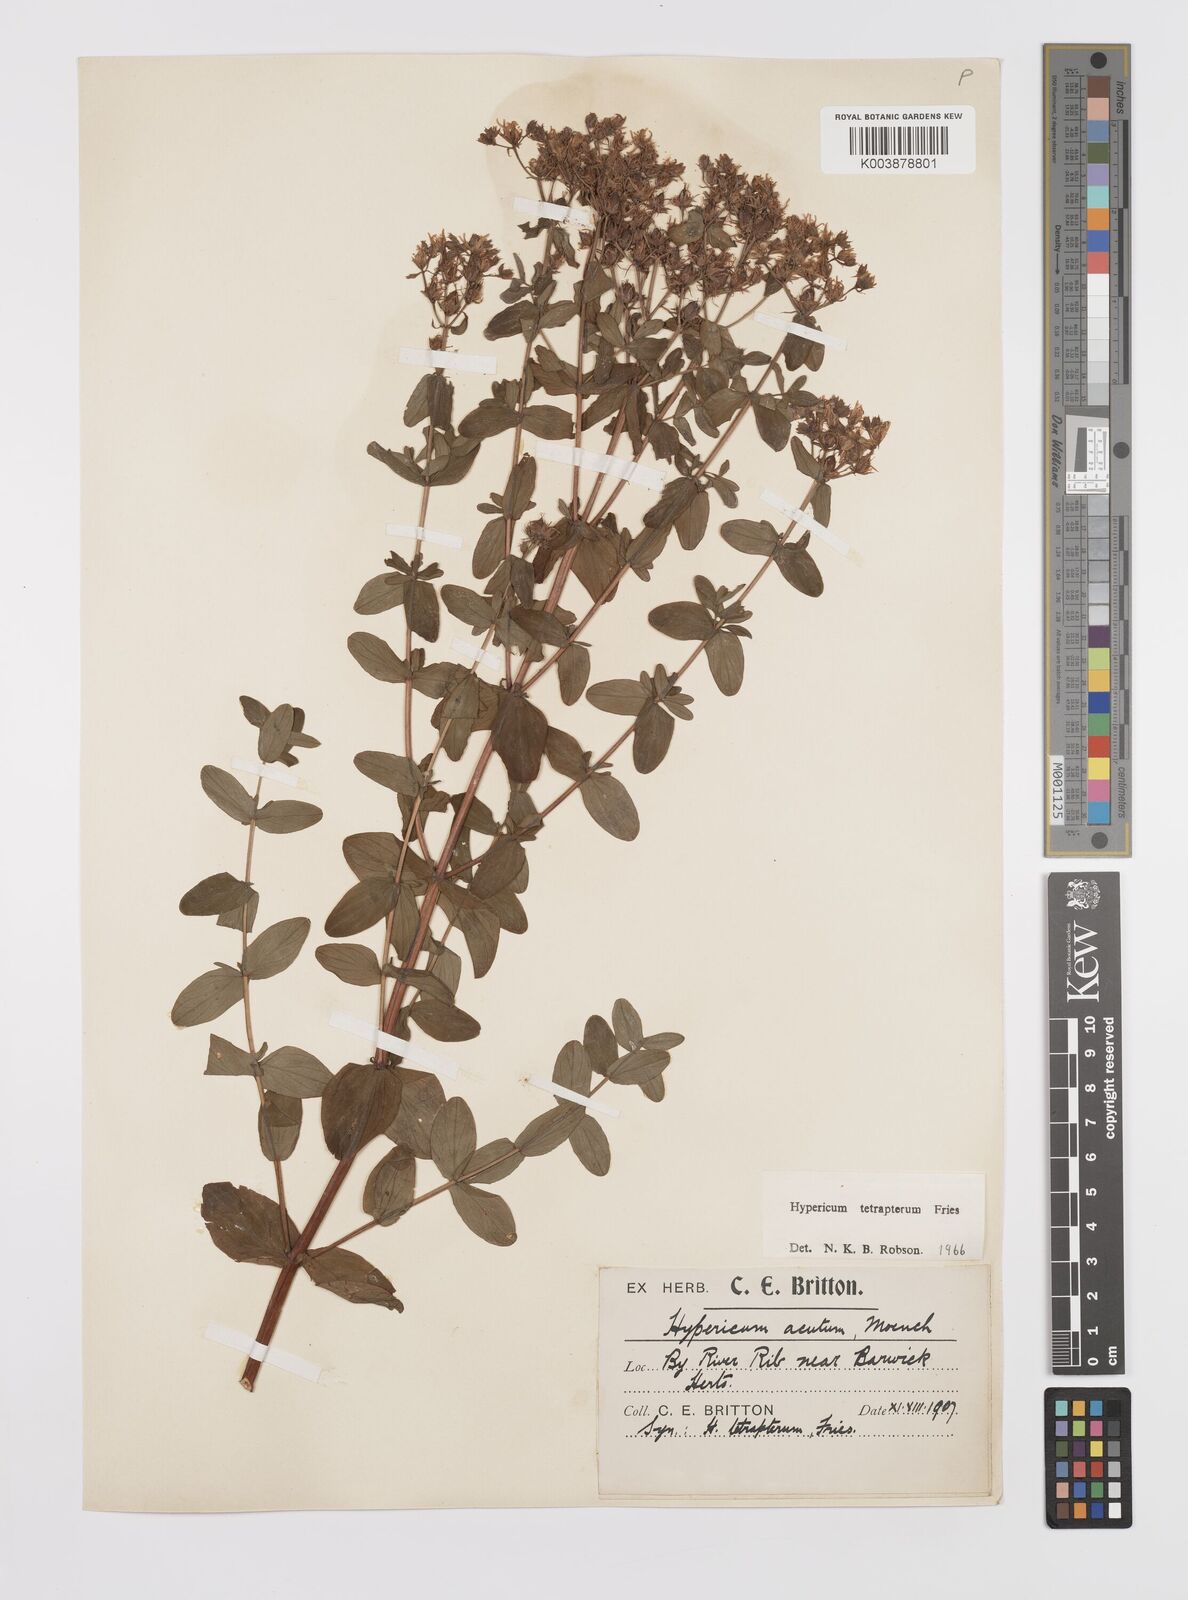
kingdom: Plantae
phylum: Tracheophyta
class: Magnoliopsida
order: Malpighiales
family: Hypericaceae
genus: Hypericum
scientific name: Hypericum tetrapterum
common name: Square-stalked st. john's-wort
